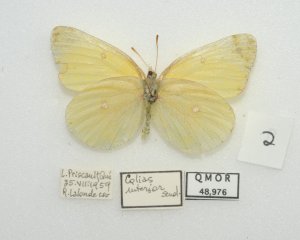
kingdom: Animalia
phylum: Arthropoda
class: Insecta
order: Lepidoptera
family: Pieridae
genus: Colias
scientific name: Colias interior
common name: Pink-edged Sulphur
